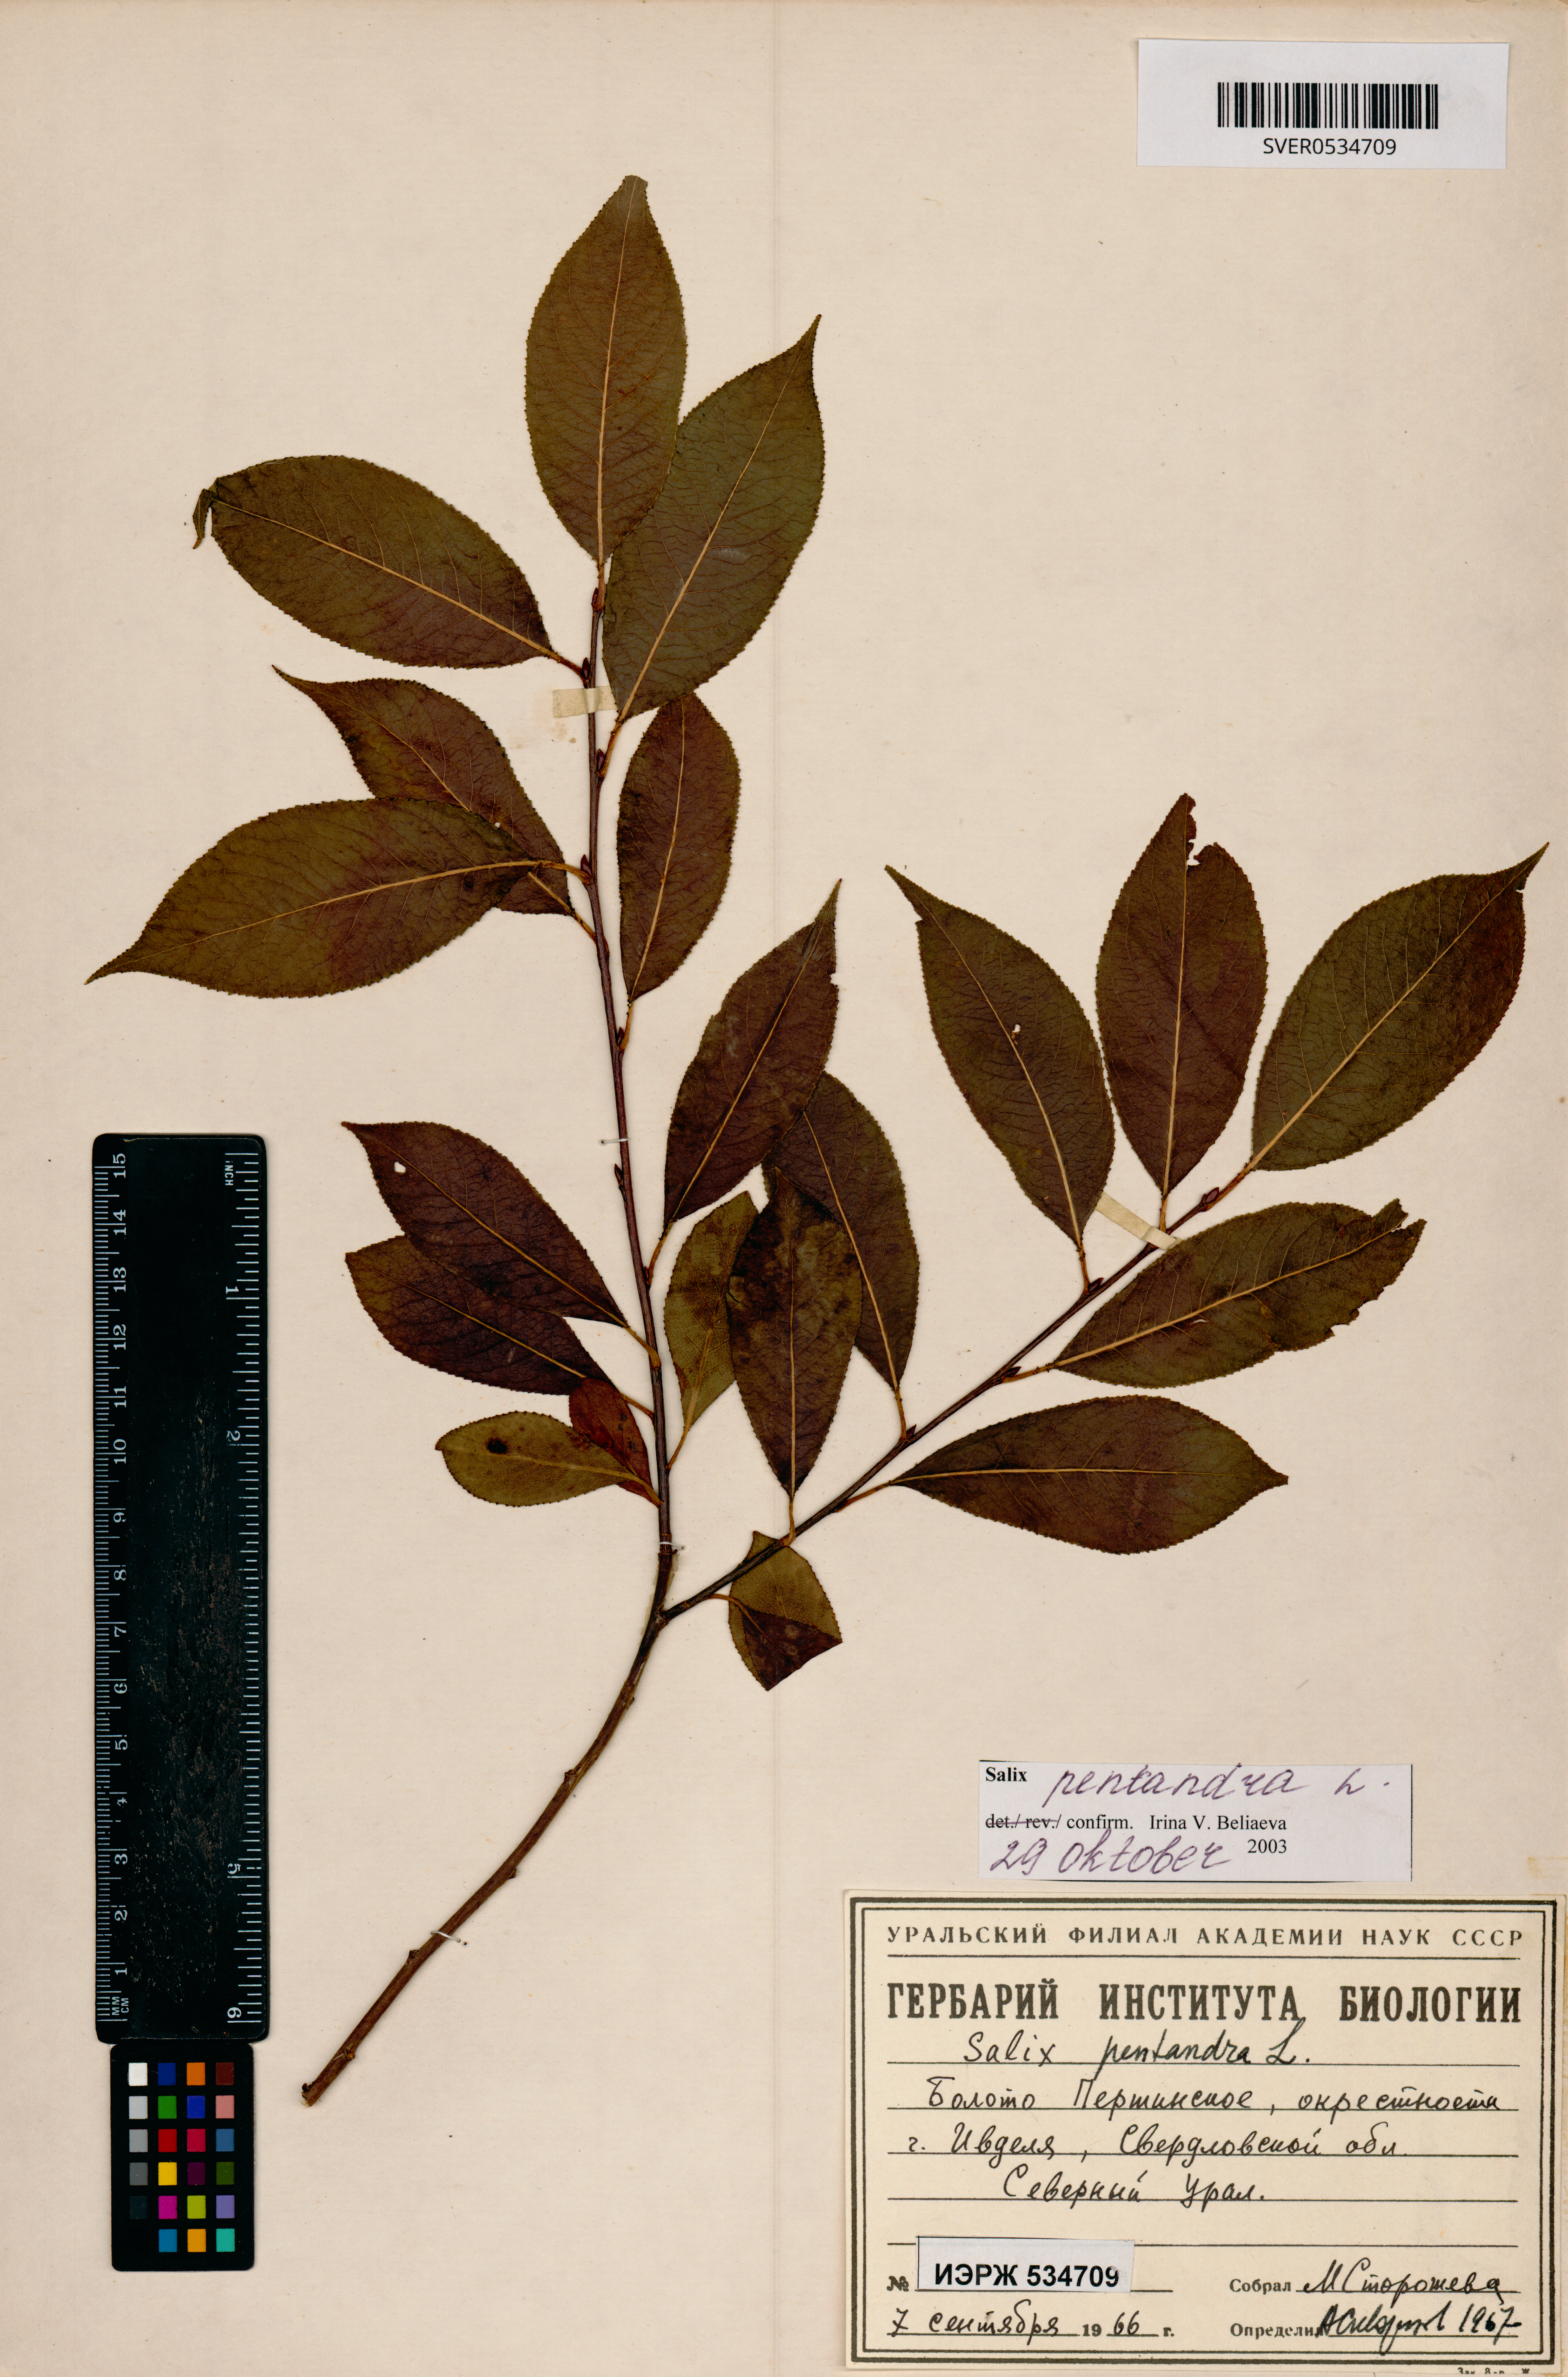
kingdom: Plantae
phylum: Tracheophyta
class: Magnoliopsida
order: Malpighiales
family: Salicaceae
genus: Salix
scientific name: Salix pentandra
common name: Bay willow
